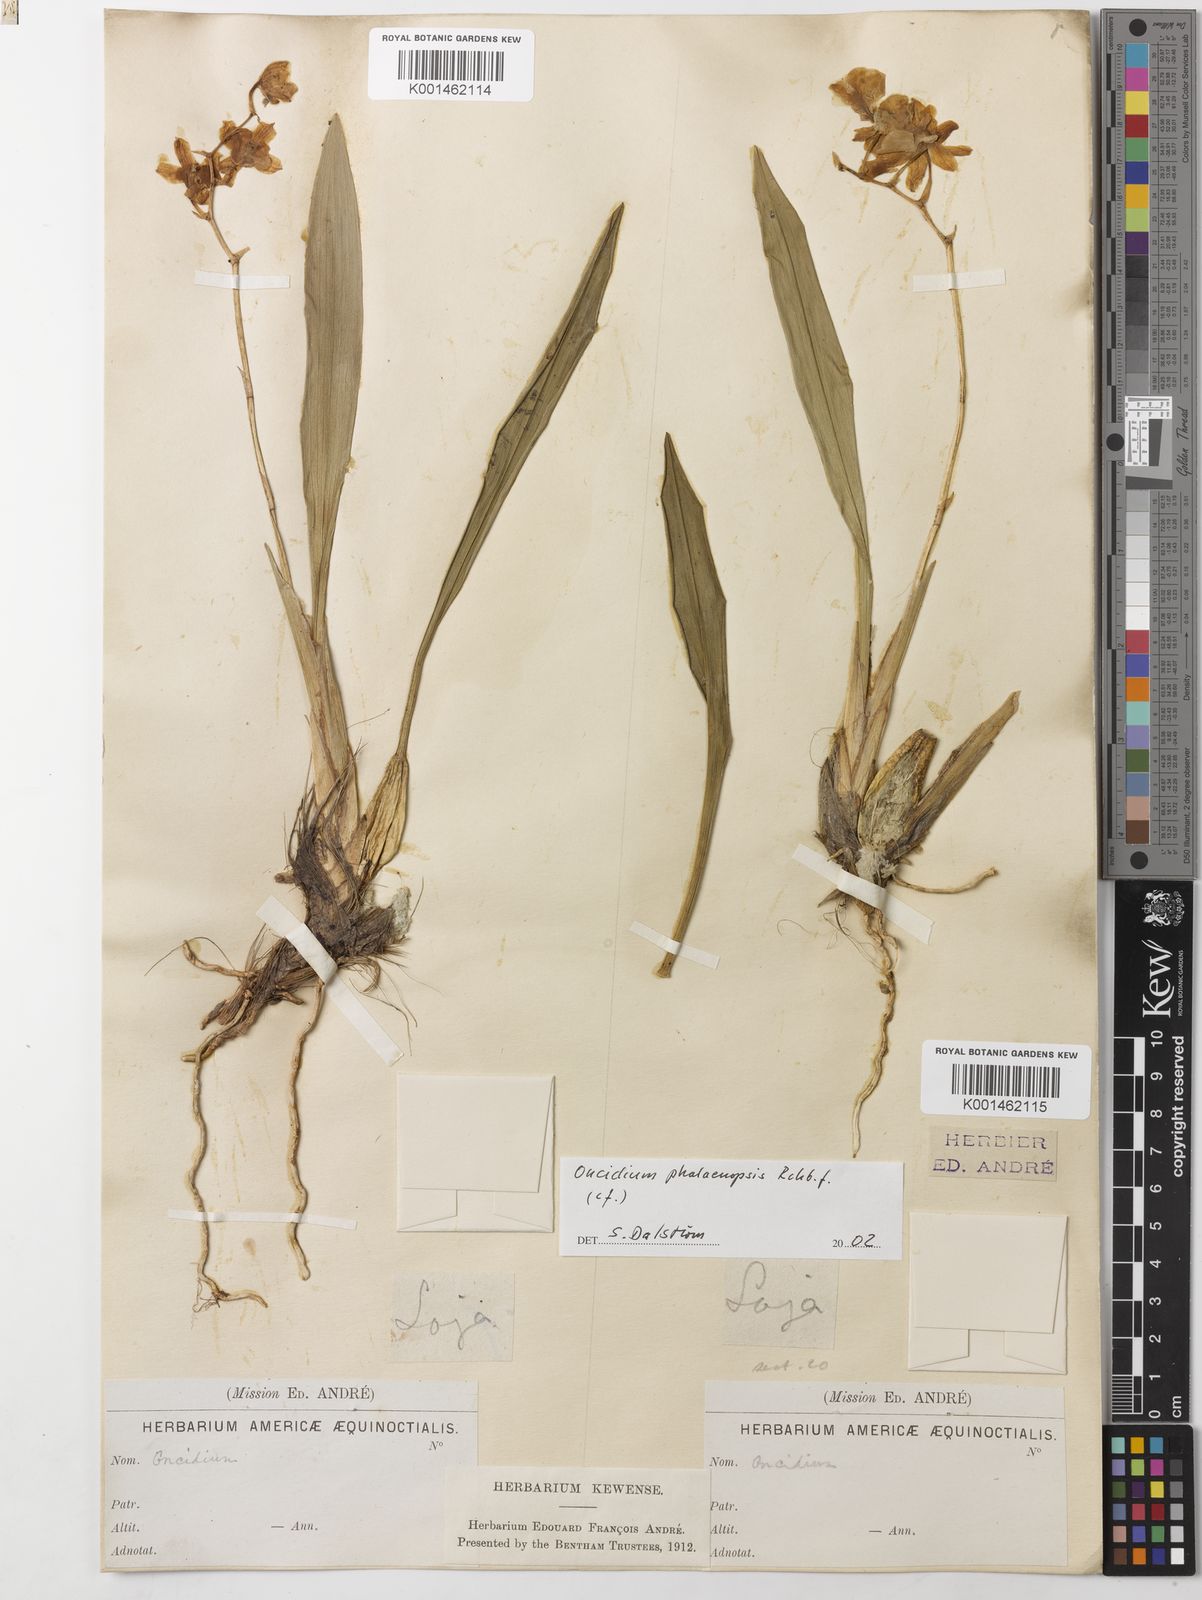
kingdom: Plantae
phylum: Tracheophyta
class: Liliopsida
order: Asparagales
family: Orchidaceae
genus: Caucaea
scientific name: Caucaea phalaenopsis
